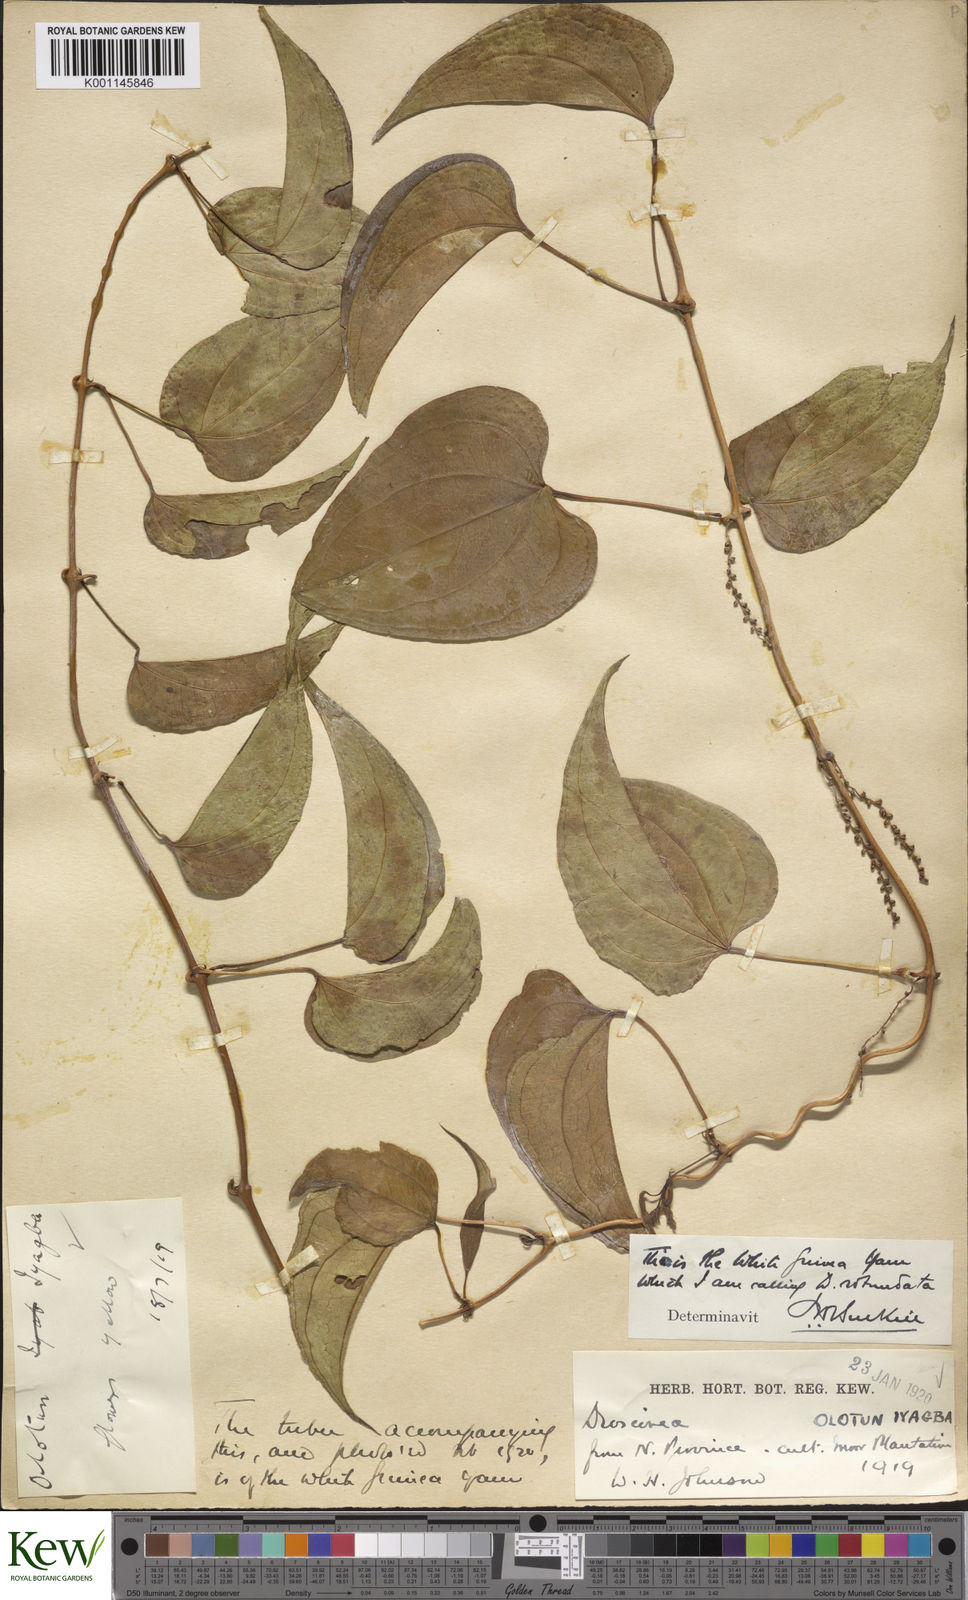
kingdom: Plantae
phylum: Tracheophyta
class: Liliopsida
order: Dioscoreales
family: Dioscoreaceae
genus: Dioscorea
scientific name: Dioscorea cayenensis
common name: Attoto yam
